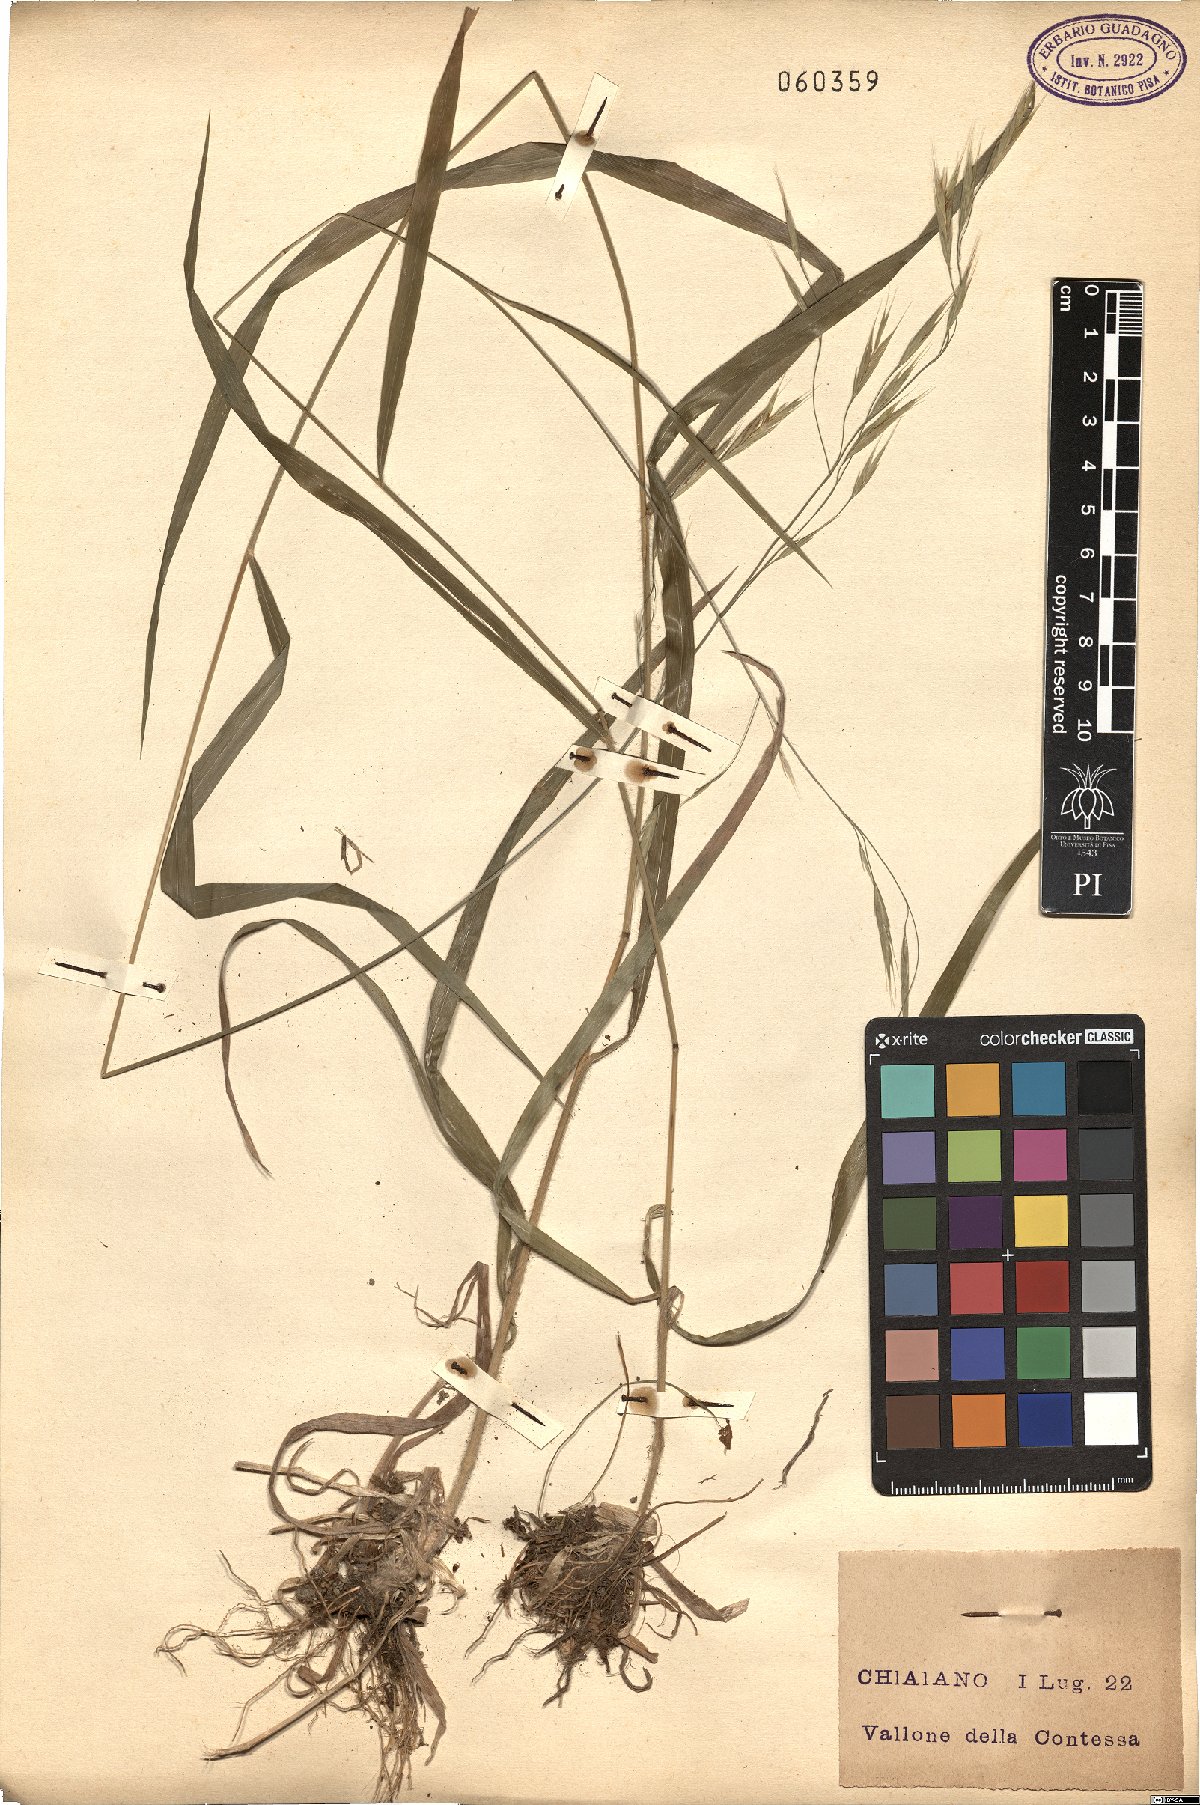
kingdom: Plantae
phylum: Tracheophyta
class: Liliopsida
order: Poales
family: Poaceae
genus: Bromus
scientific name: Bromus ramosus
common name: Hairy brome
